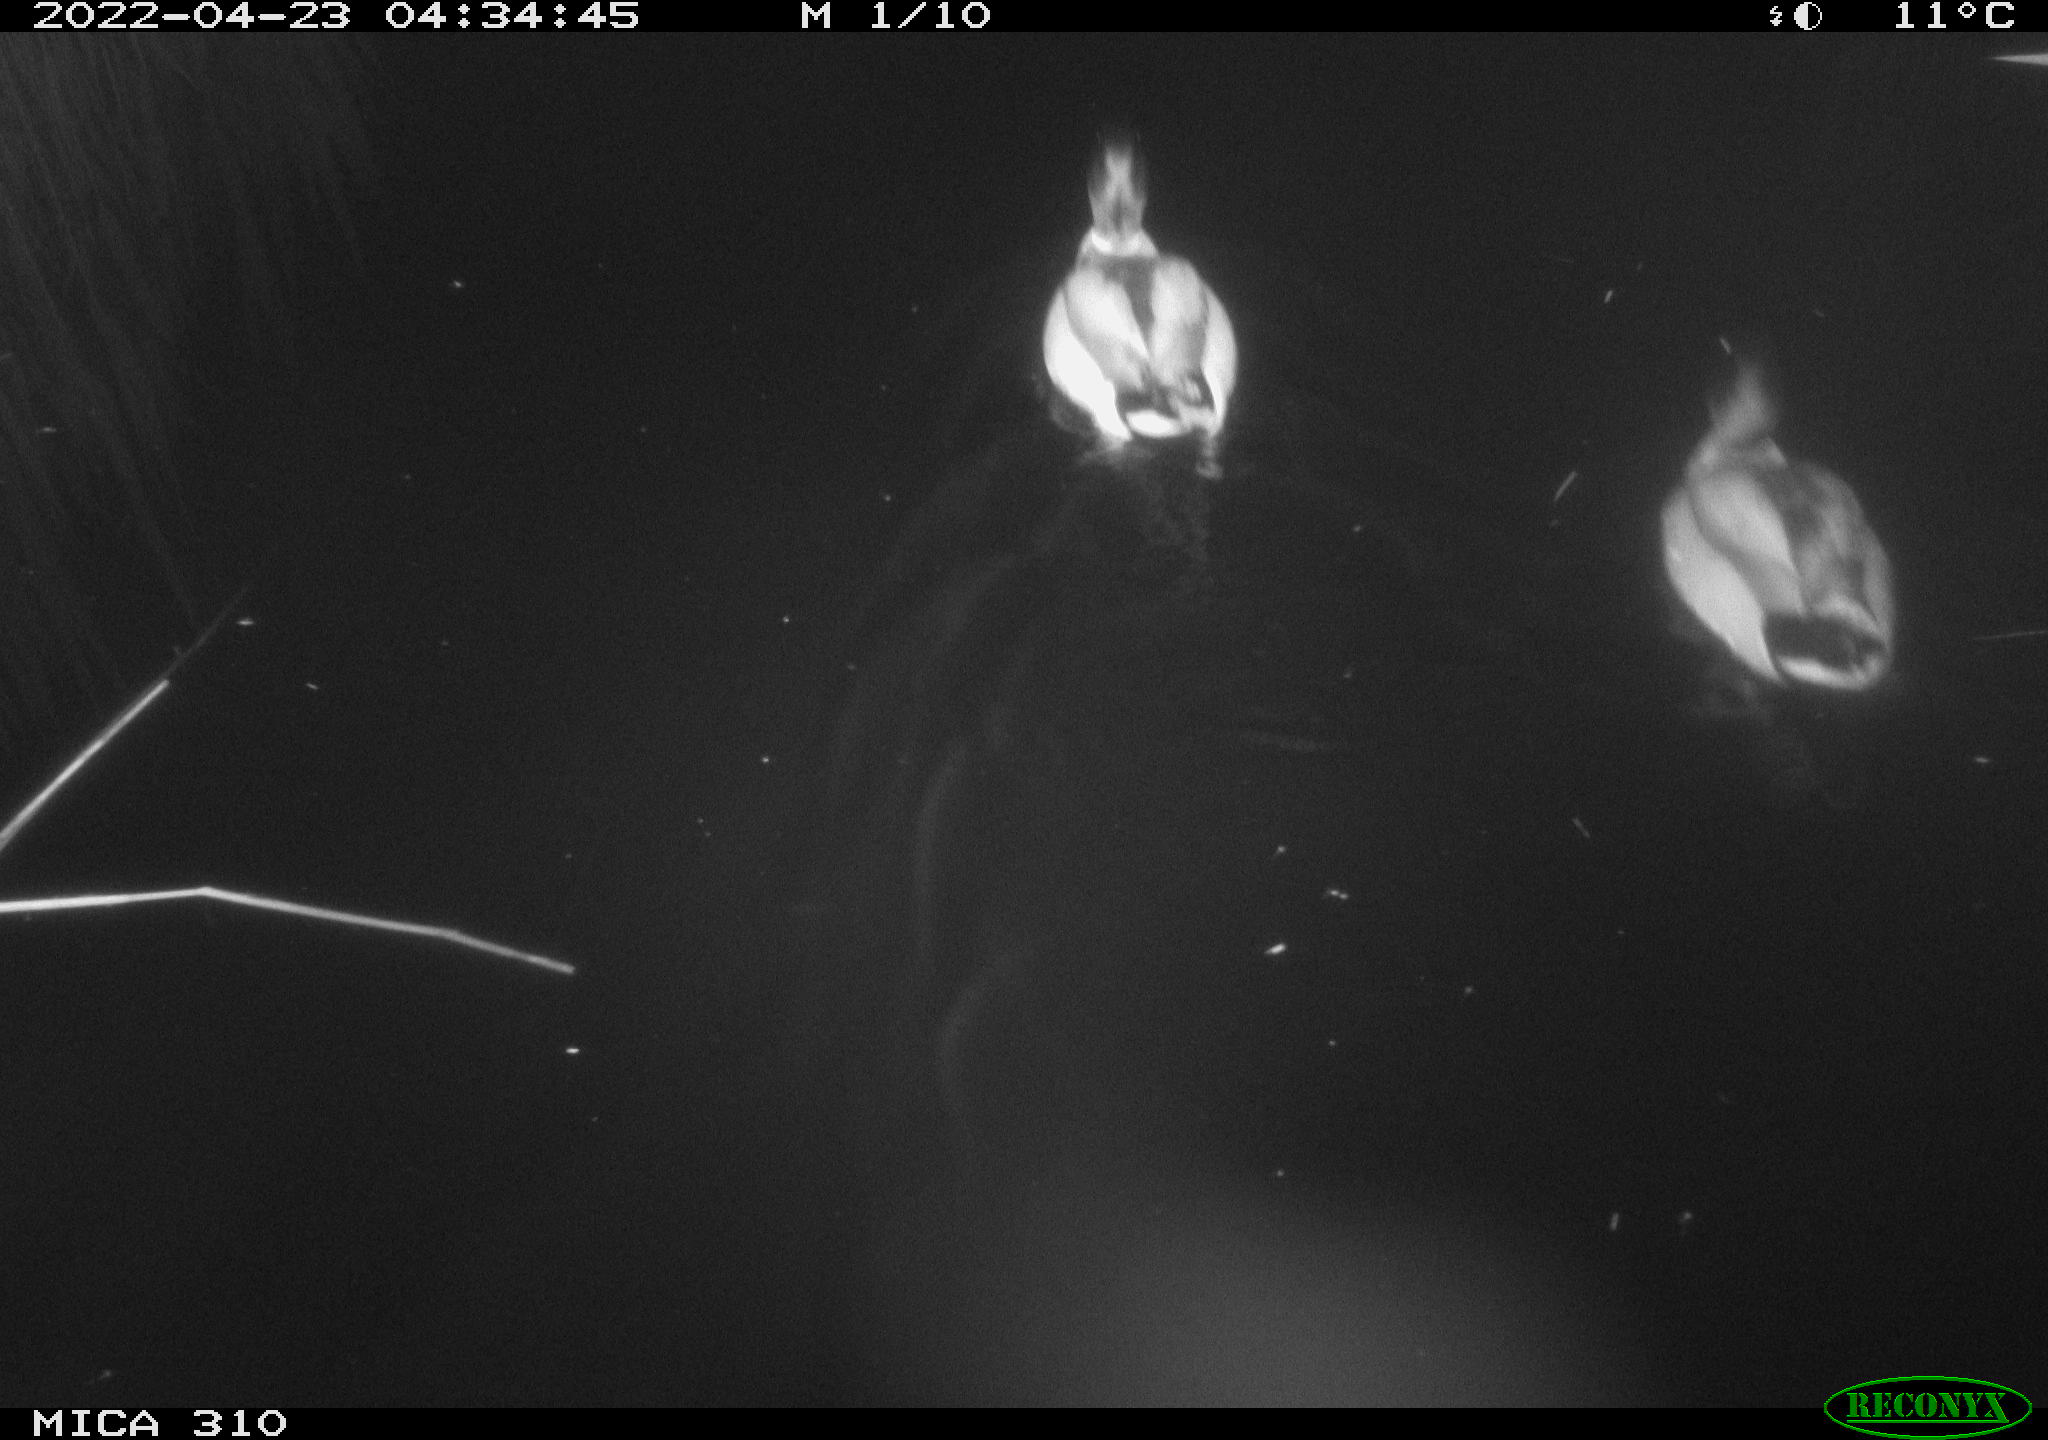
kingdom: Animalia
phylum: Chordata
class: Aves
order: Anseriformes
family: Anatidae
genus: Anas
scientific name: Anas platyrhynchos
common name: Mallard
